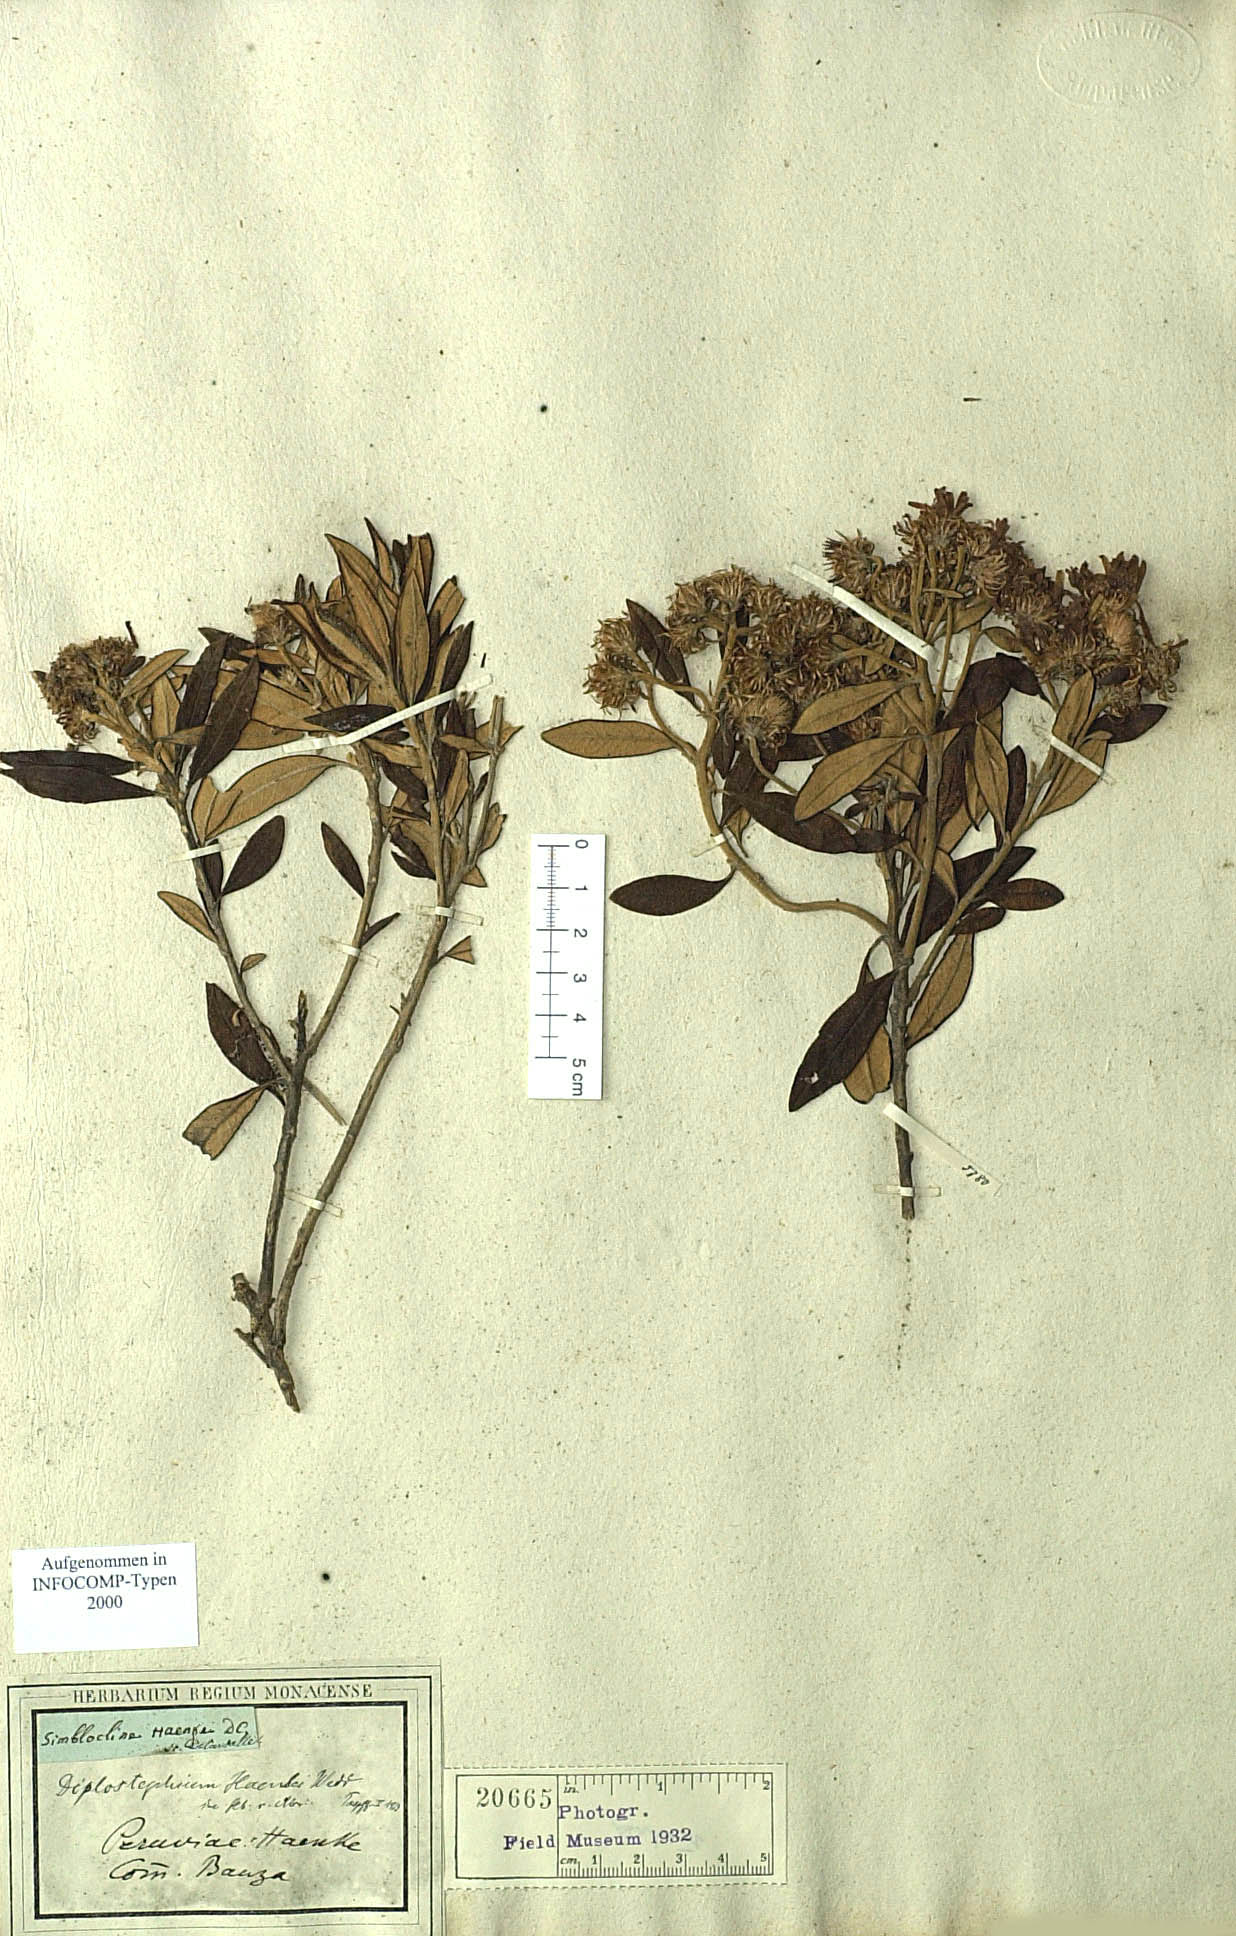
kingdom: Plantae
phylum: Tracheophyta
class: Magnoliopsida
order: Asterales
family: Asteraceae
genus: Diplostephium
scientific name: Diplostephium haenkei
